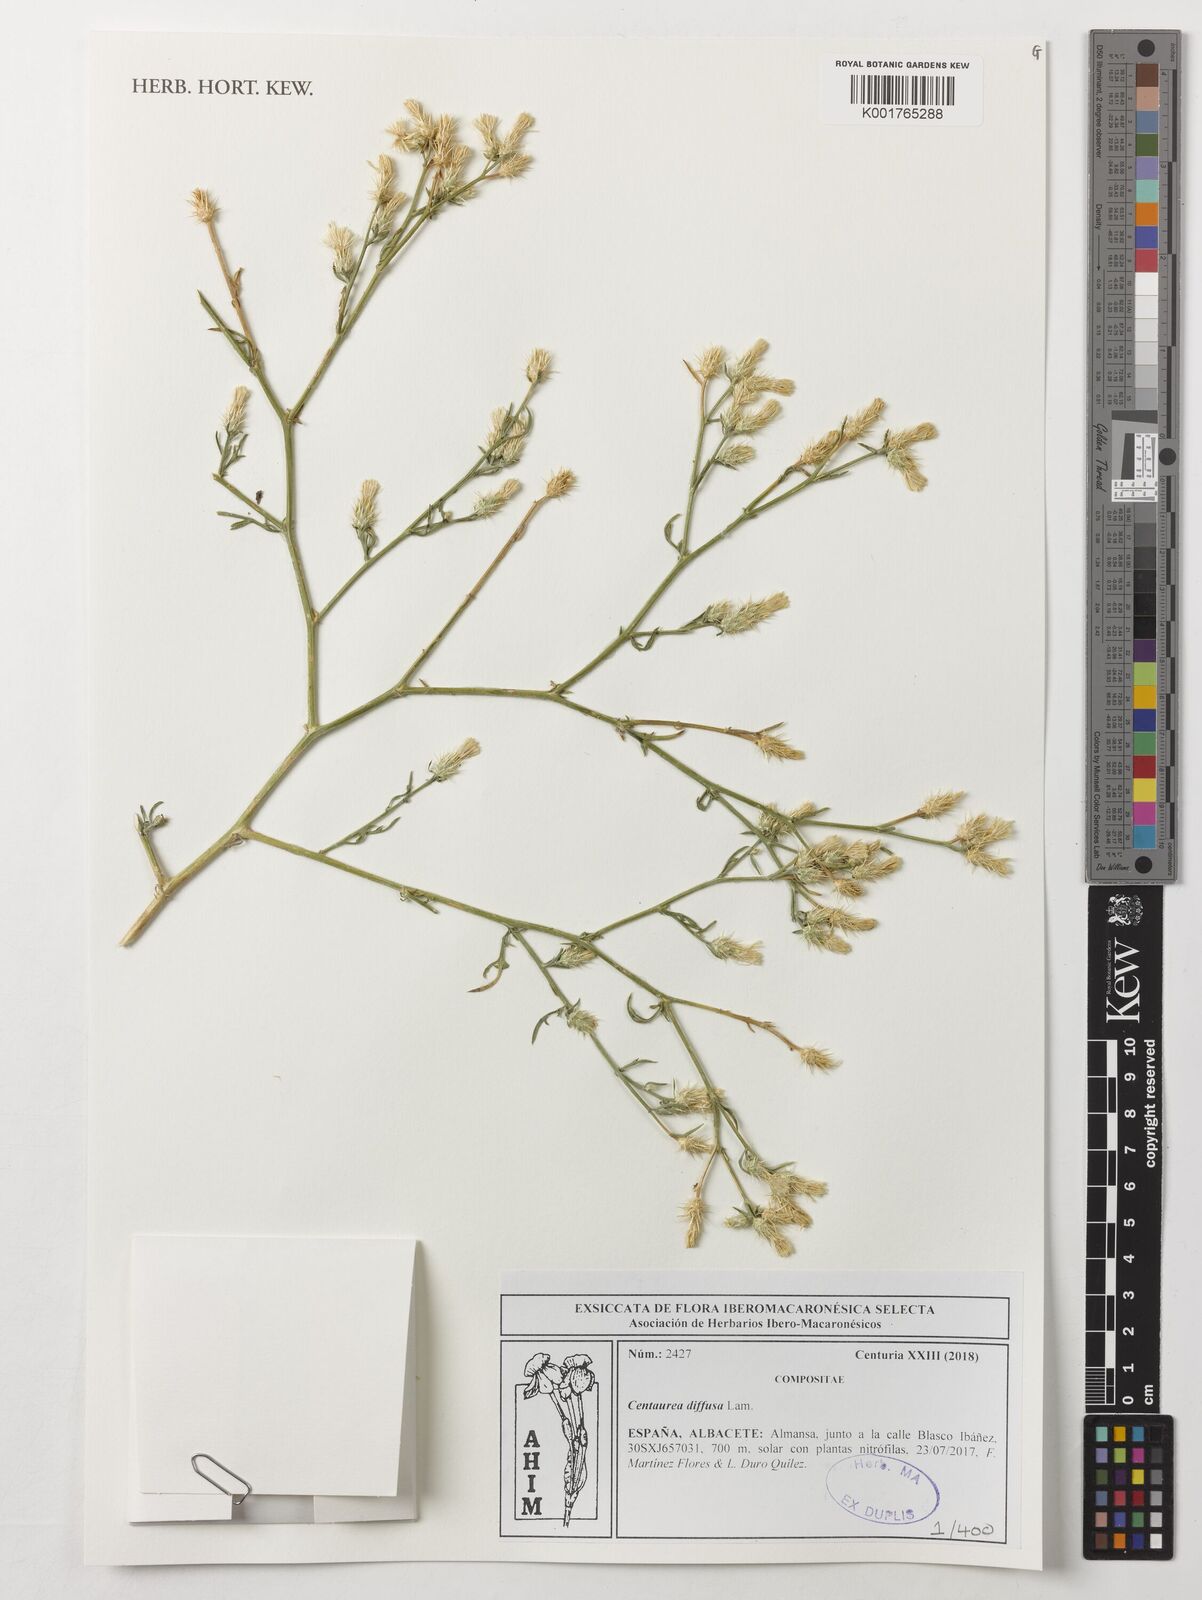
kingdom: Plantae
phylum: Tracheophyta
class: Magnoliopsida
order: Asterales
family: Asteraceae
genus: Centaurea
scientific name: Centaurea diffusa
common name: Diffuse knapweed
